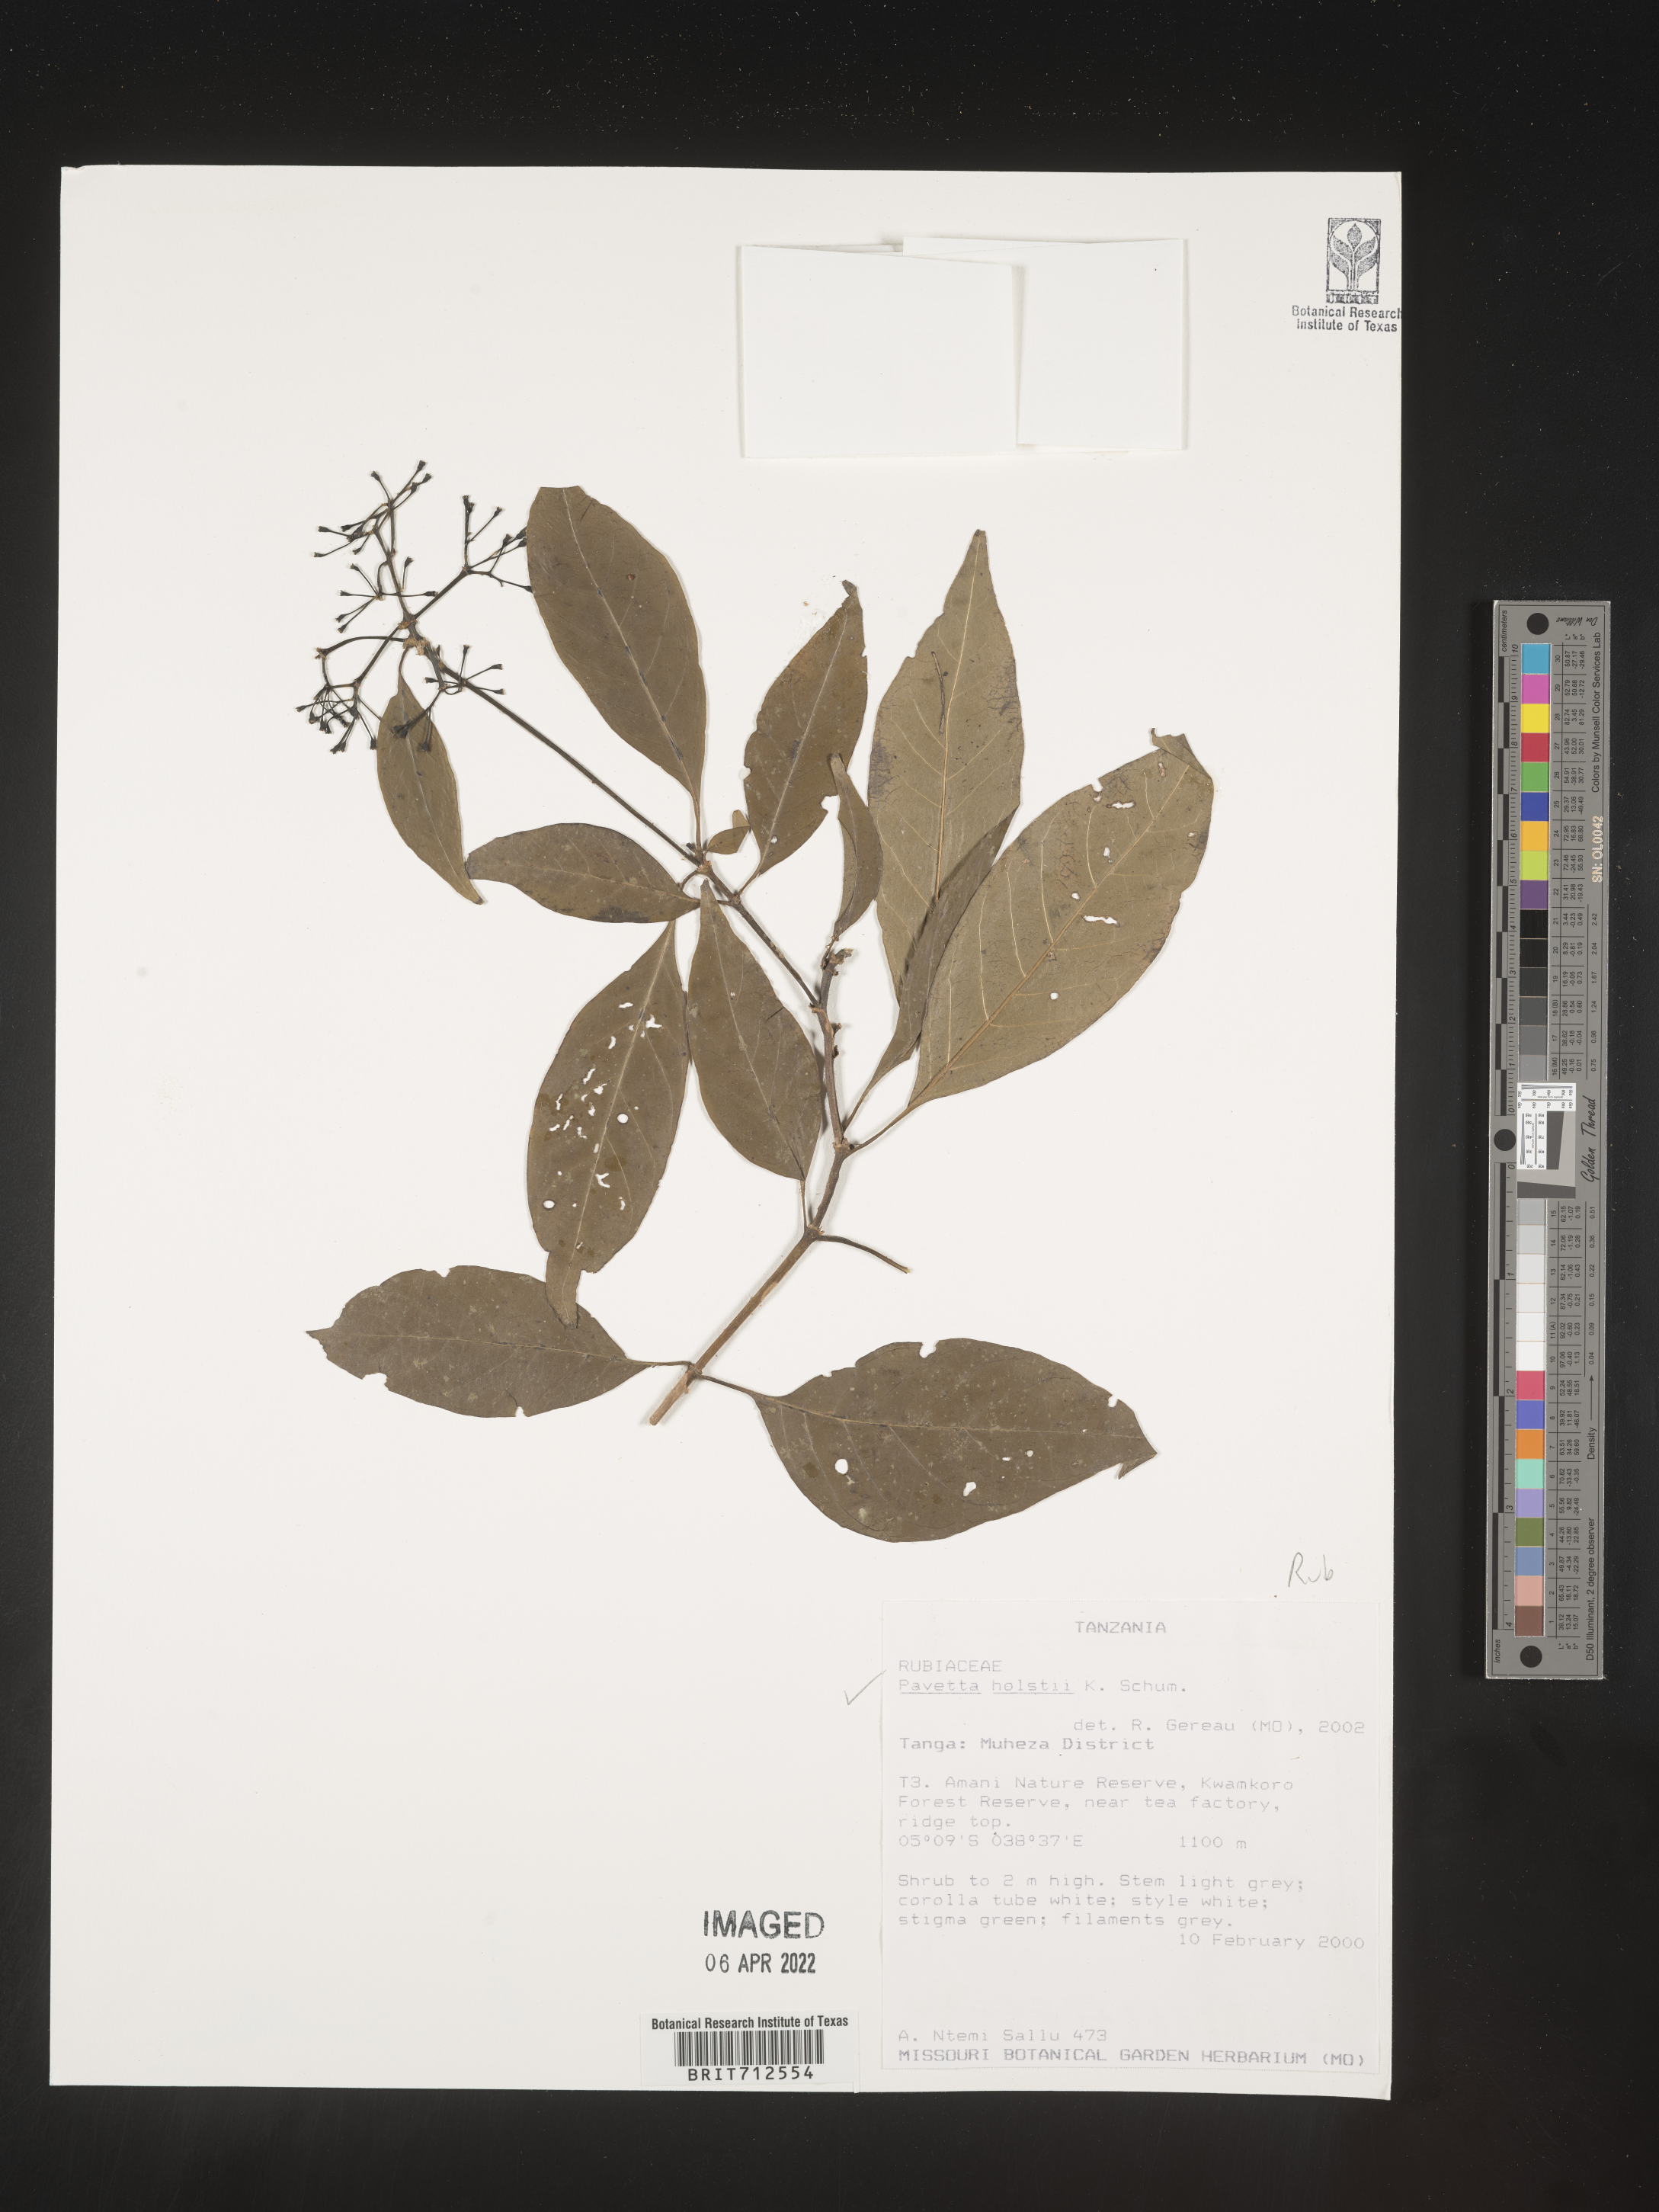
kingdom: Plantae
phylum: Tracheophyta
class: Magnoliopsida
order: Gentianales
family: Rubiaceae
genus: Pavetta
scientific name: Pavetta
